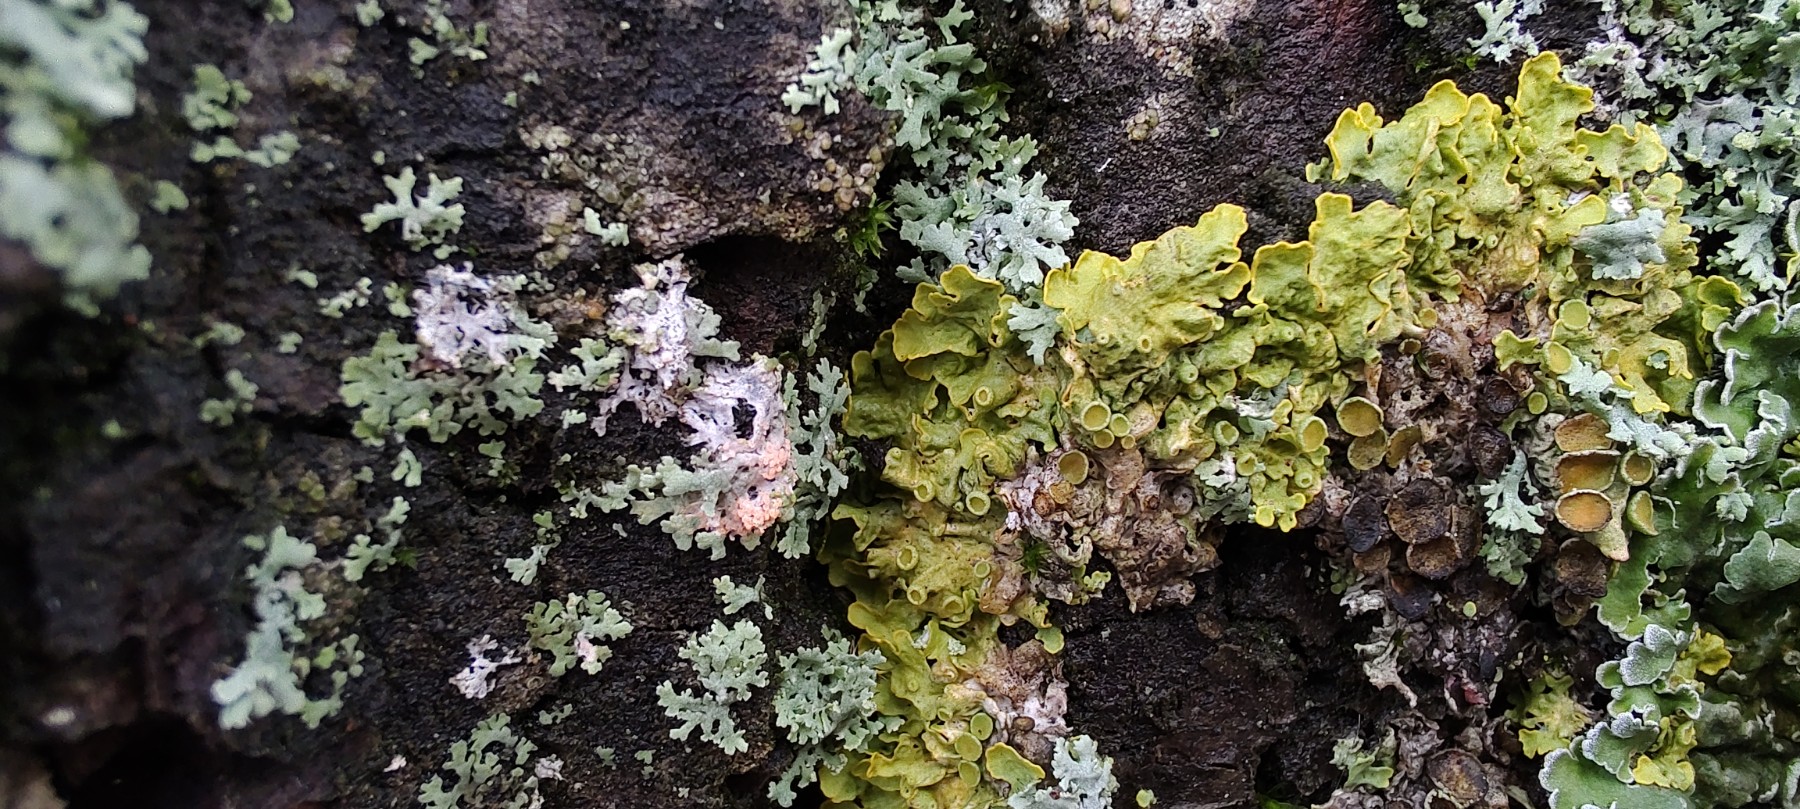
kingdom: Fungi
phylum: Basidiomycota
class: Agaricomycetes
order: Corticiales
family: Corticiaceae
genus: Erythricium
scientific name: Erythricium aurantiacum
